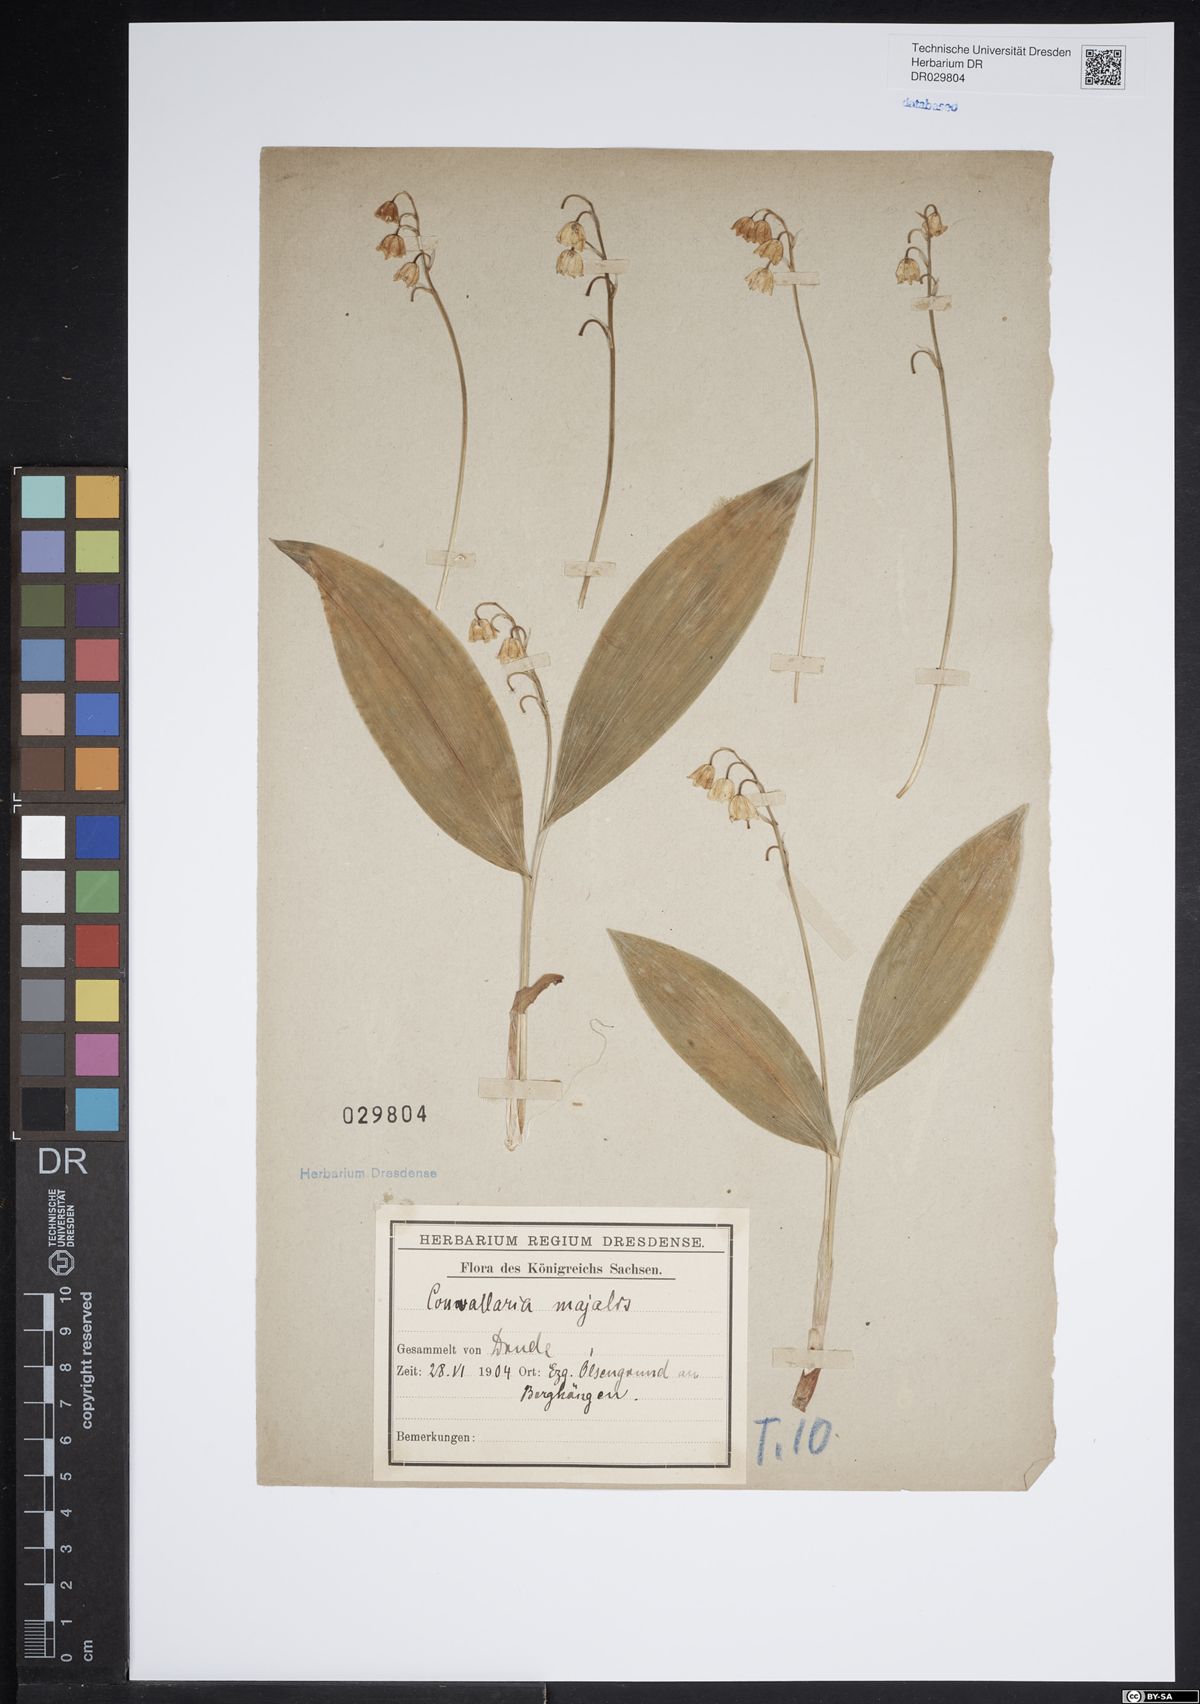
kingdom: Plantae
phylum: Tracheophyta
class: Liliopsida
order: Asparagales
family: Asparagaceae
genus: Convallaria
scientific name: Convallaria majalis
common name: Lily-of-the-valley
